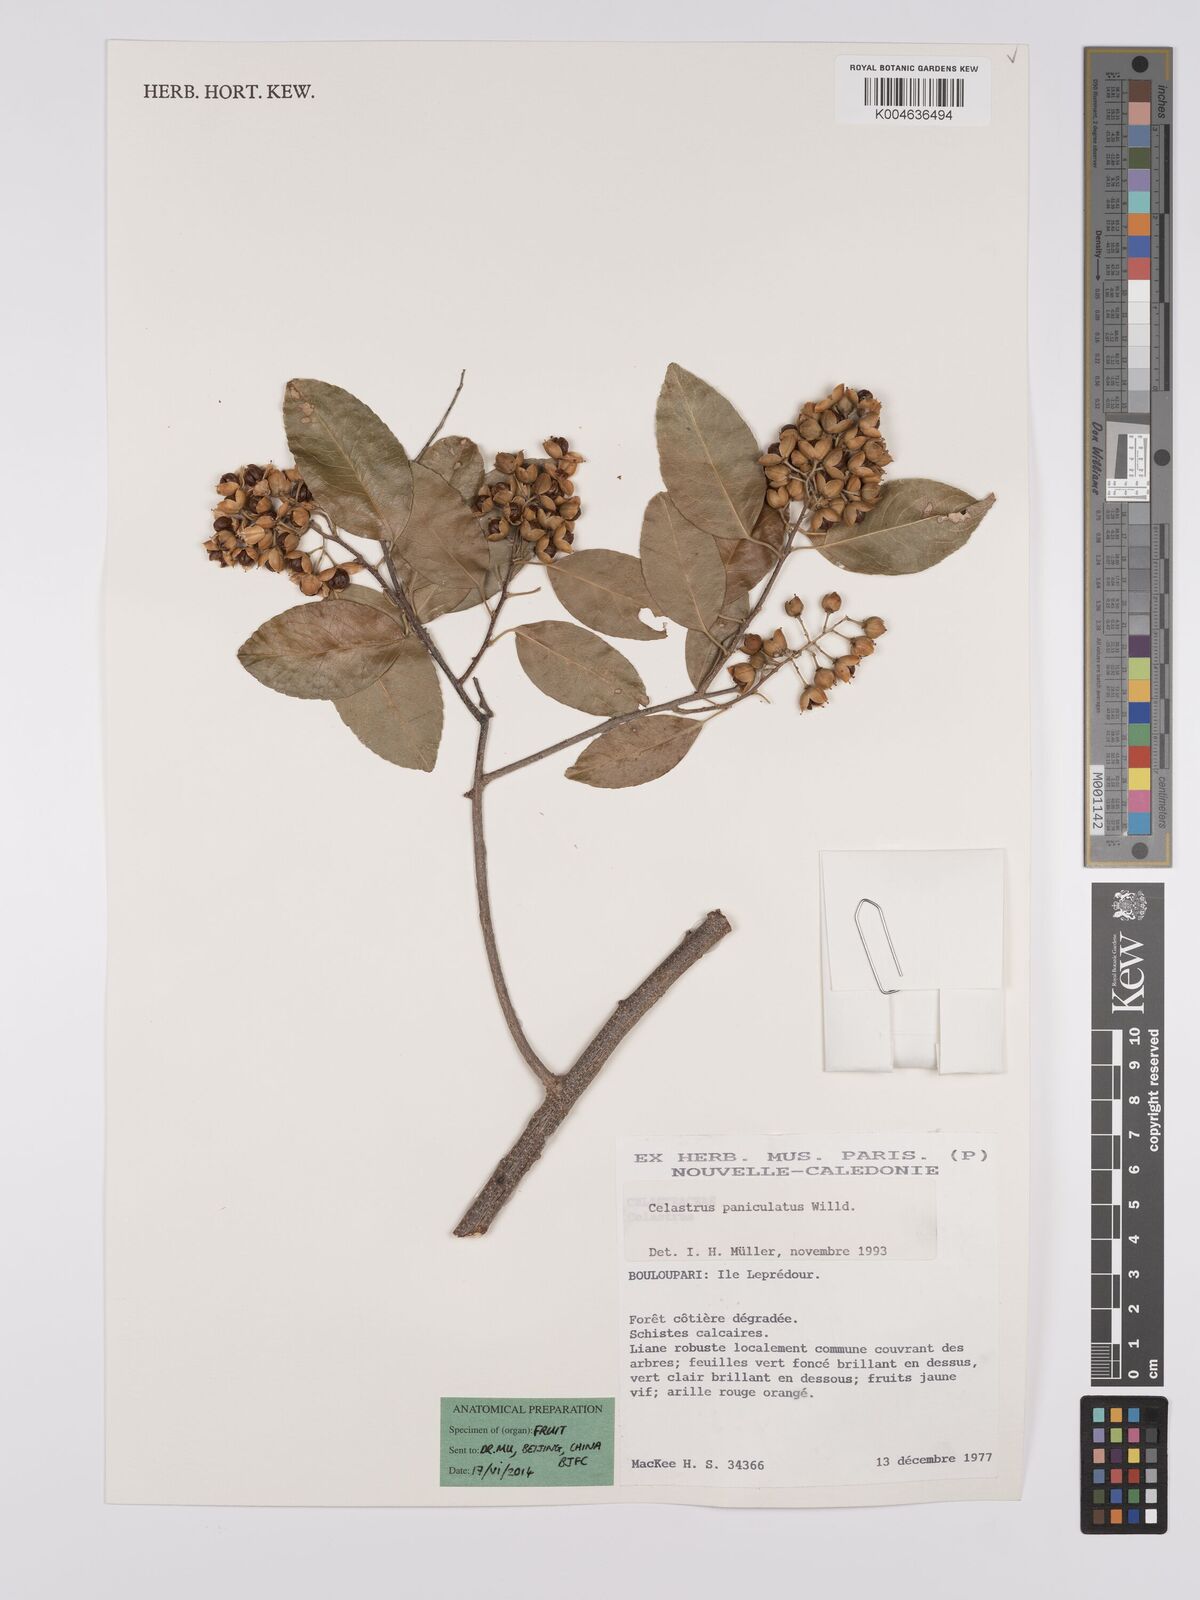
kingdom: Plantae
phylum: Tracheophyta
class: Magnoliopsida
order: Celastrales
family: Celastraceae
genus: Celastrus
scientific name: Celastrus paniculatus
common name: Oriental bittersweet; staff vine
